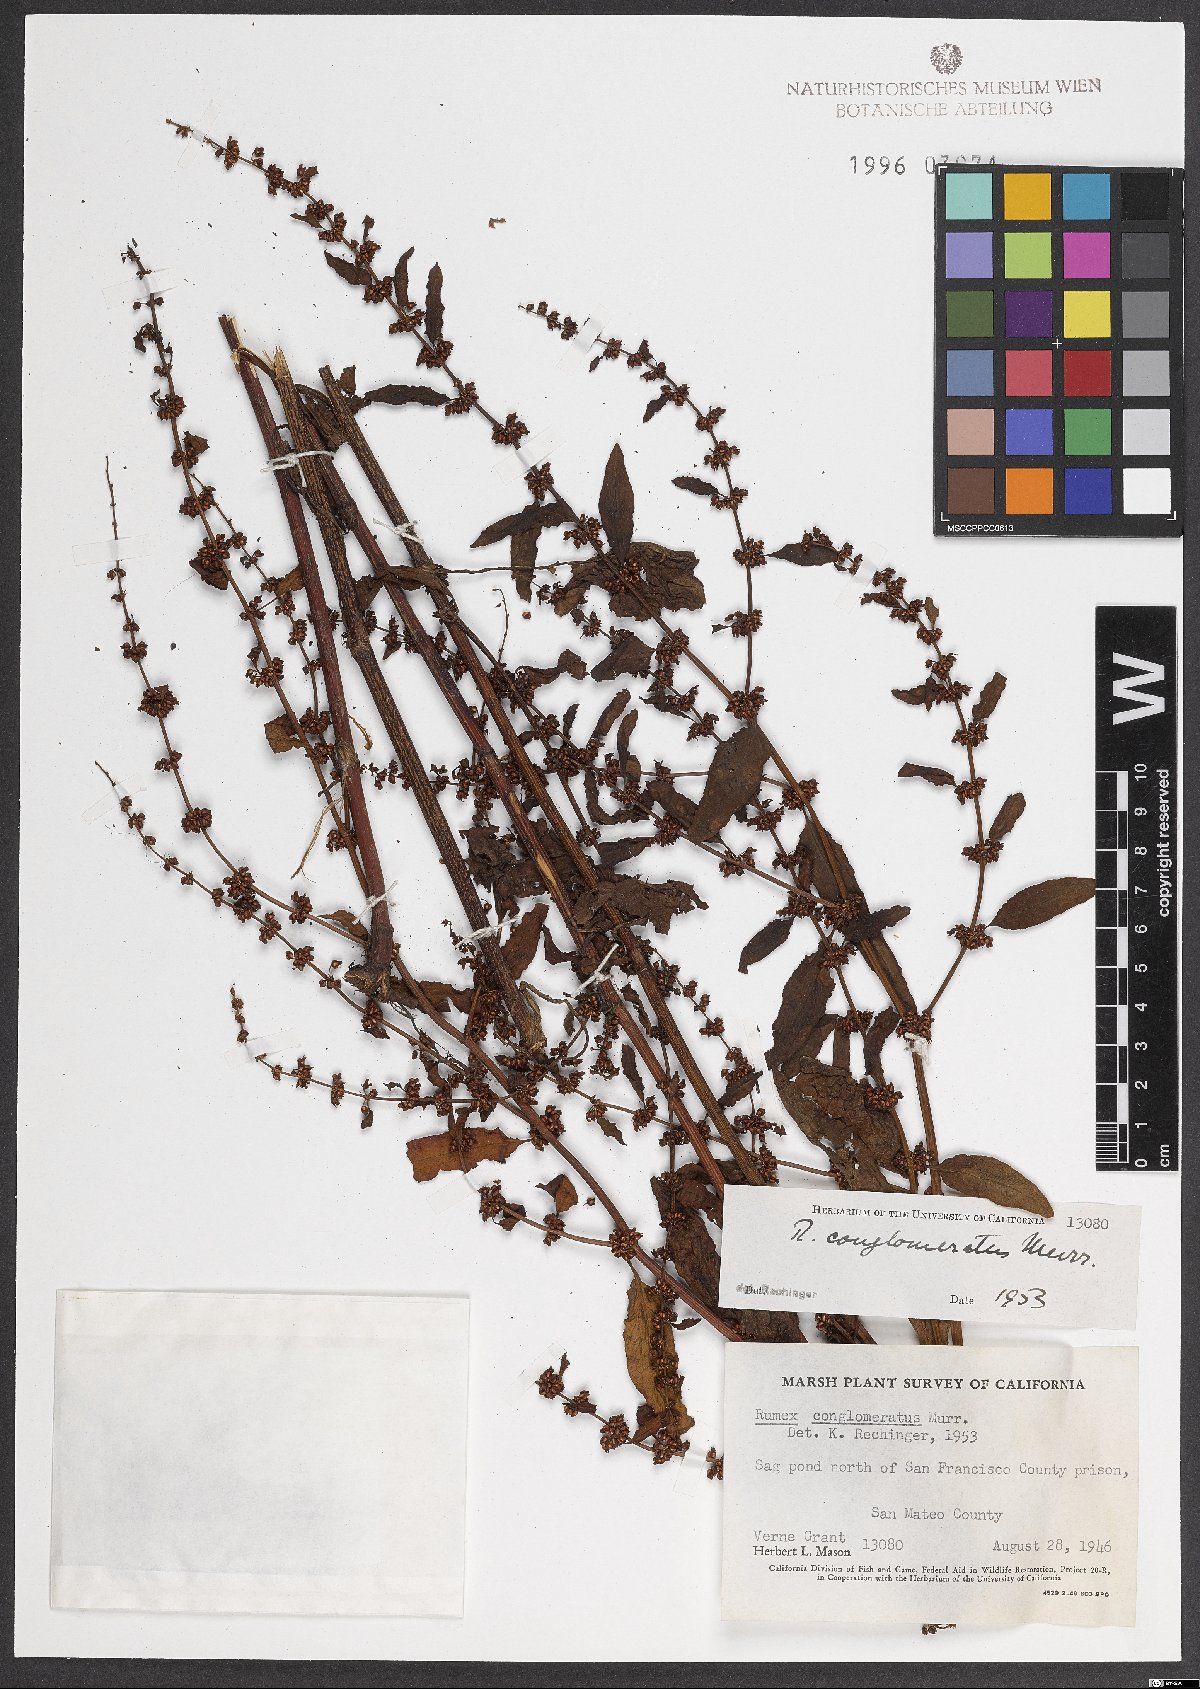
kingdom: Plantae
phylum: Tracheophyta
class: Magnoliopsida
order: Caryophyllales
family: Polygonaceae
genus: Rumex
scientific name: Rumex conglomeratus
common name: Clustered dock
